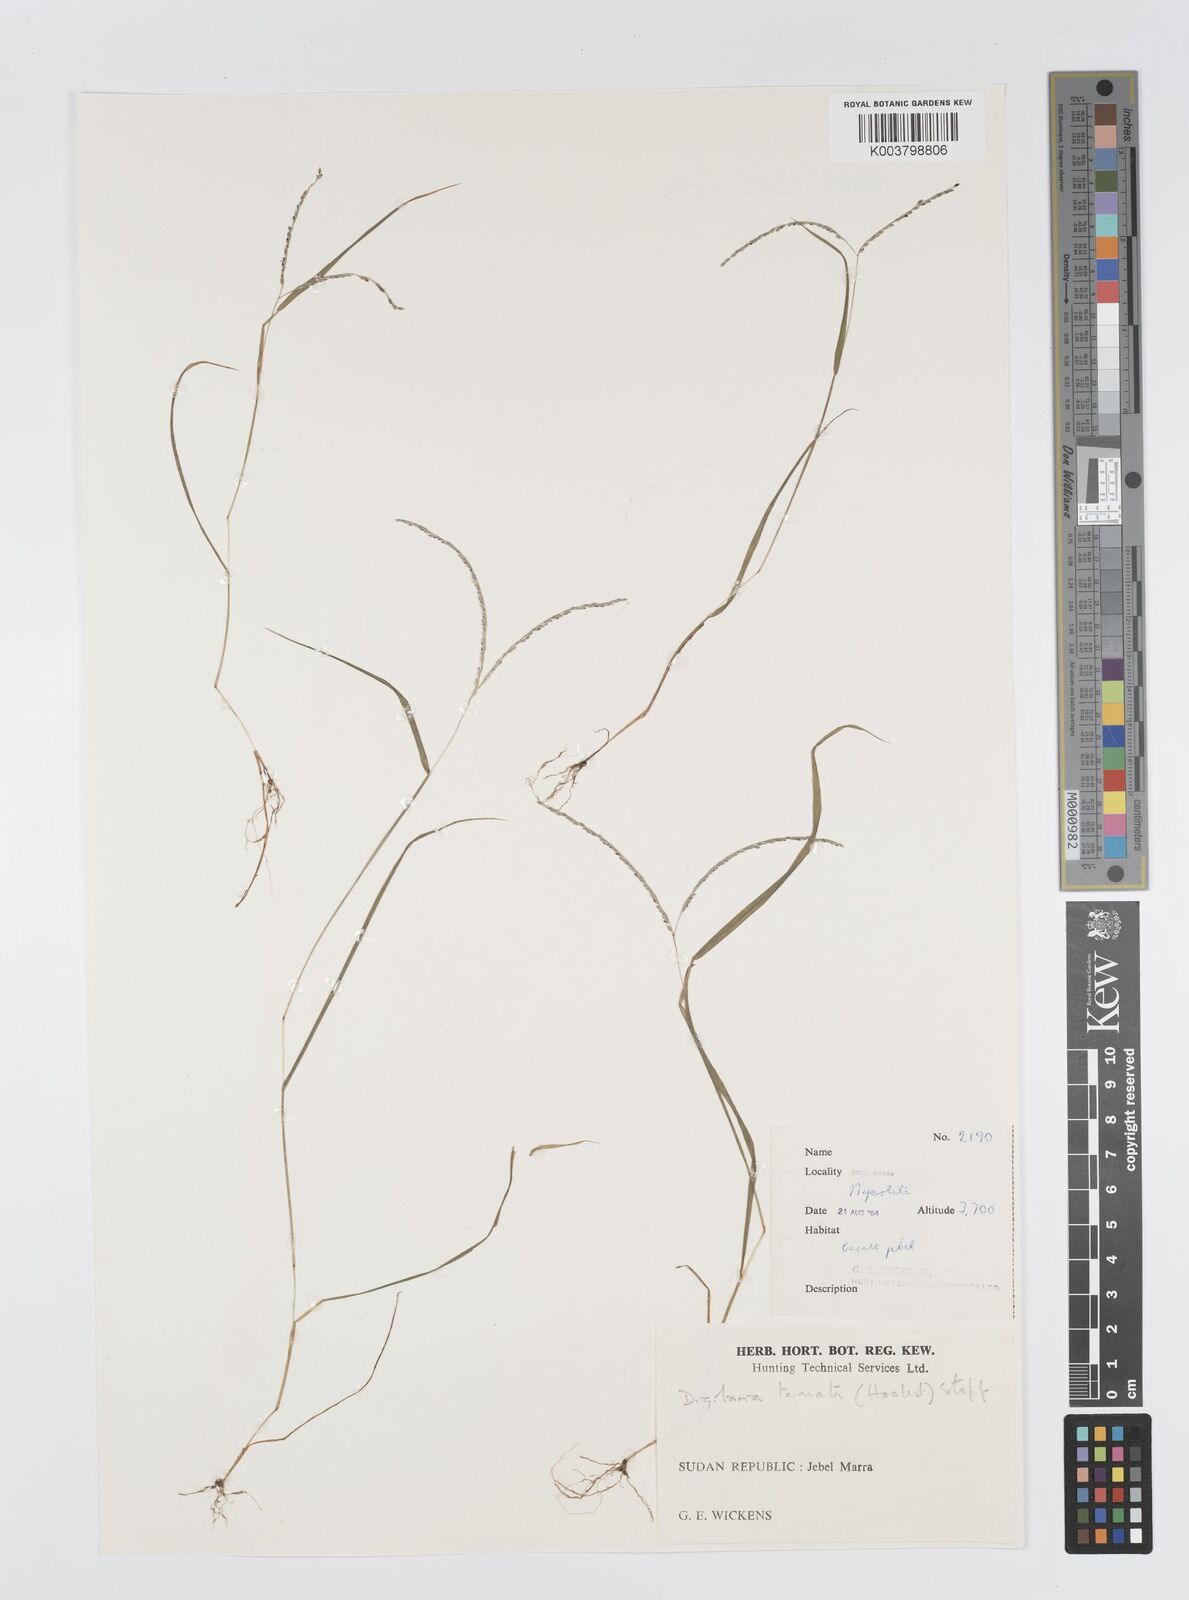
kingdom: Plantae
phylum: Tracheophyta
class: Liliopsida
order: Poales
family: Poaceae
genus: Digitaria
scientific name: Digitaria ternata
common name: Blackseed crabgrass
